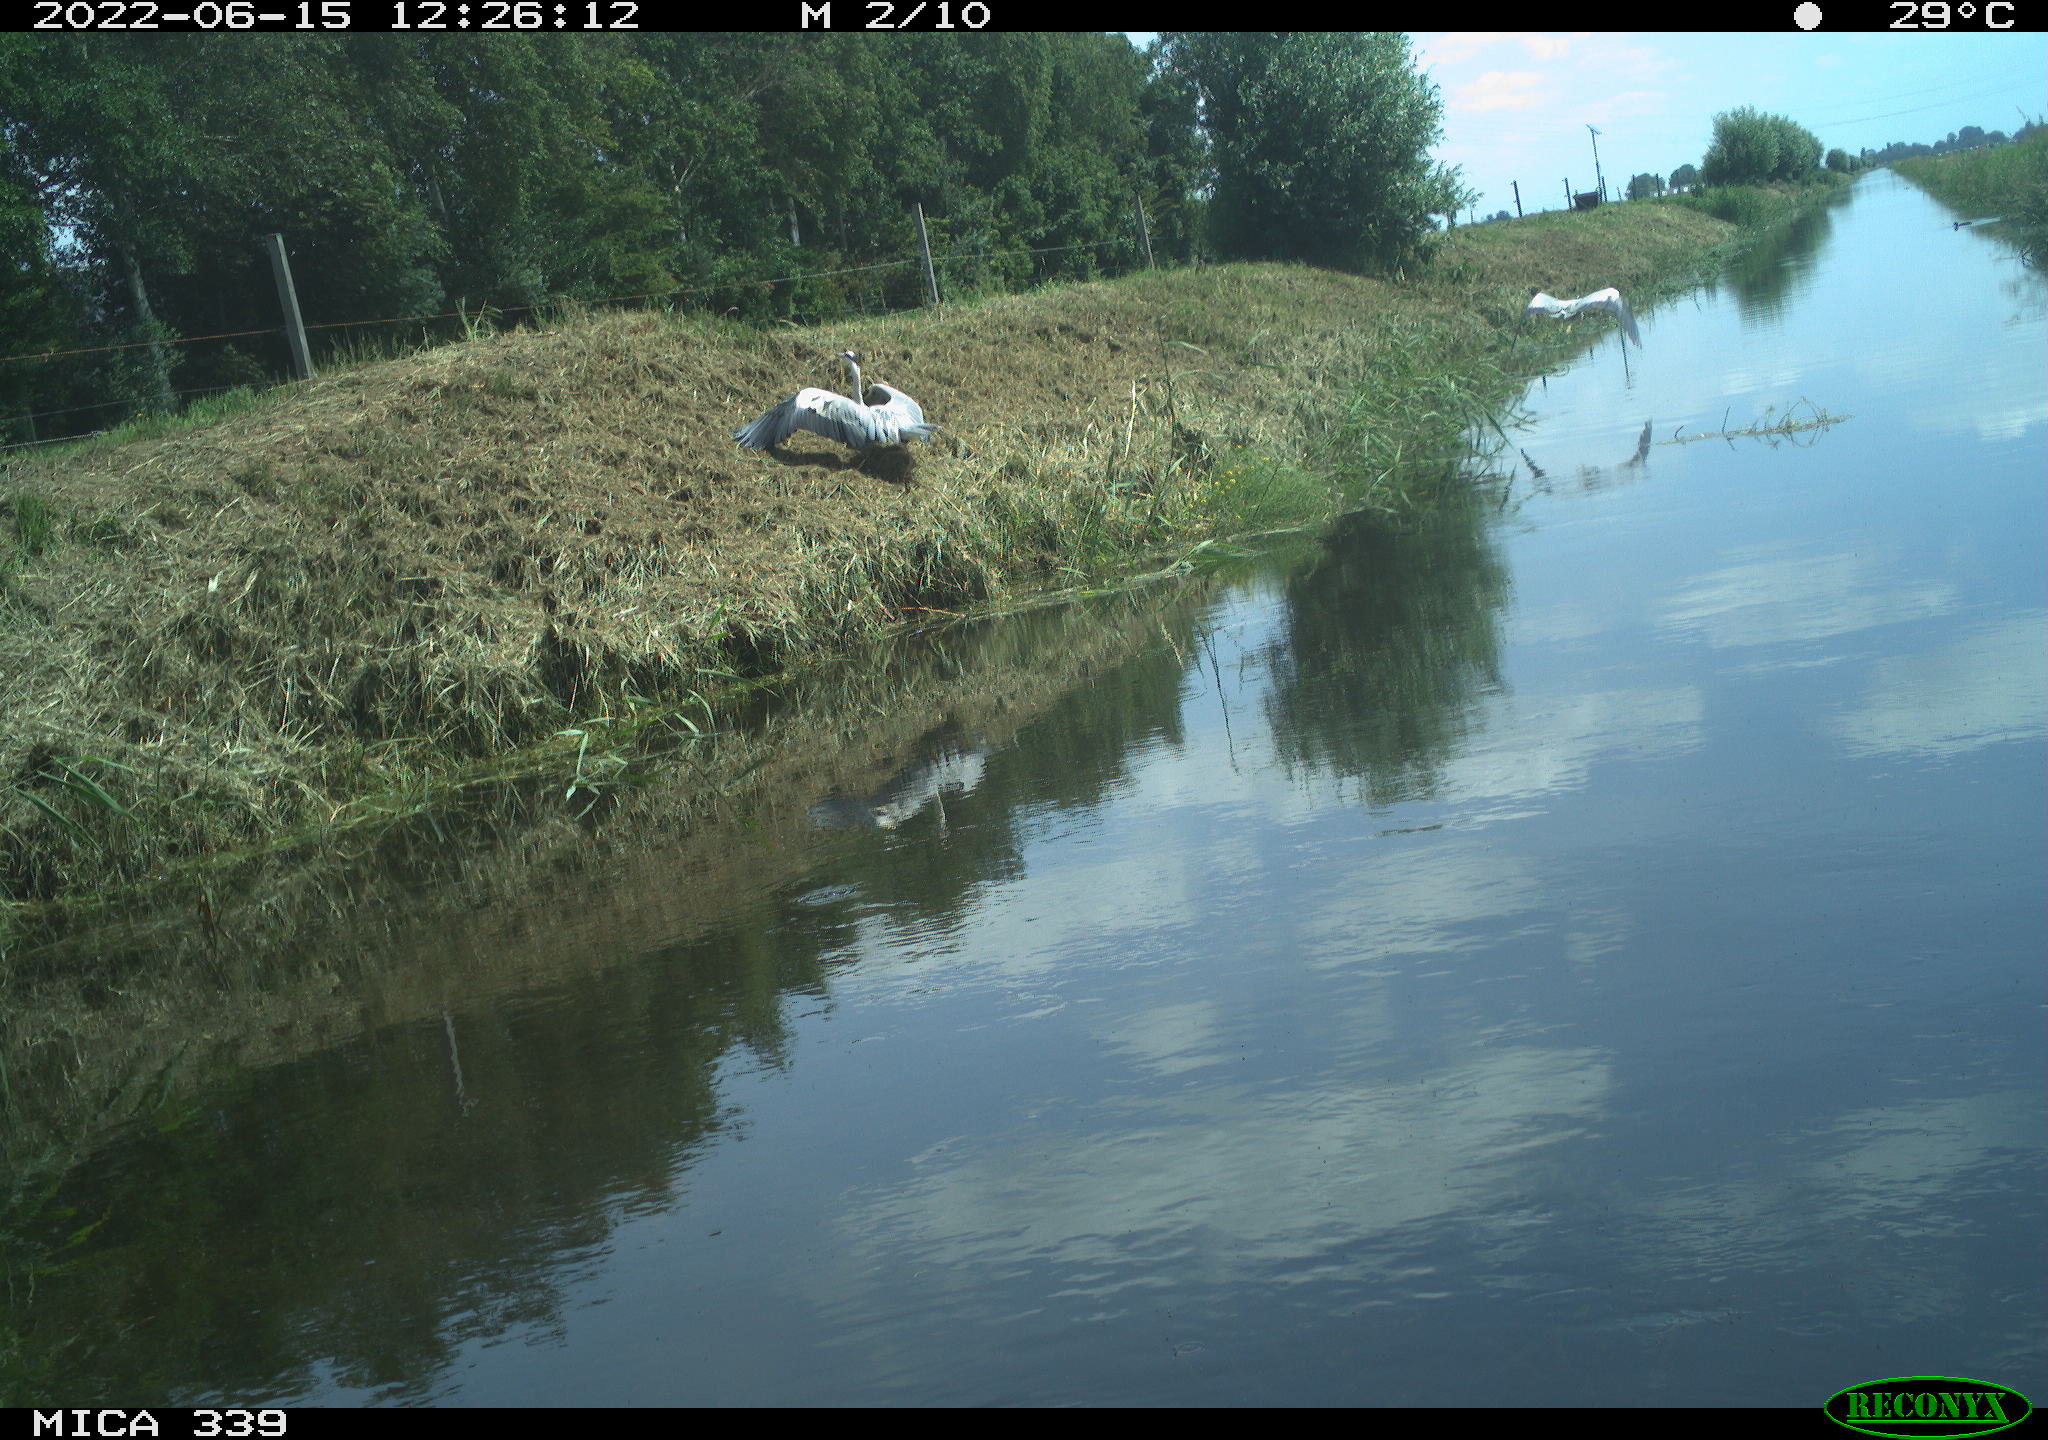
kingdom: Animalia
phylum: Chordata
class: Aves
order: Pelecaniformes
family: Ardeidae
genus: Ardea
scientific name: Ardea cinerea
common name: Grey heron
